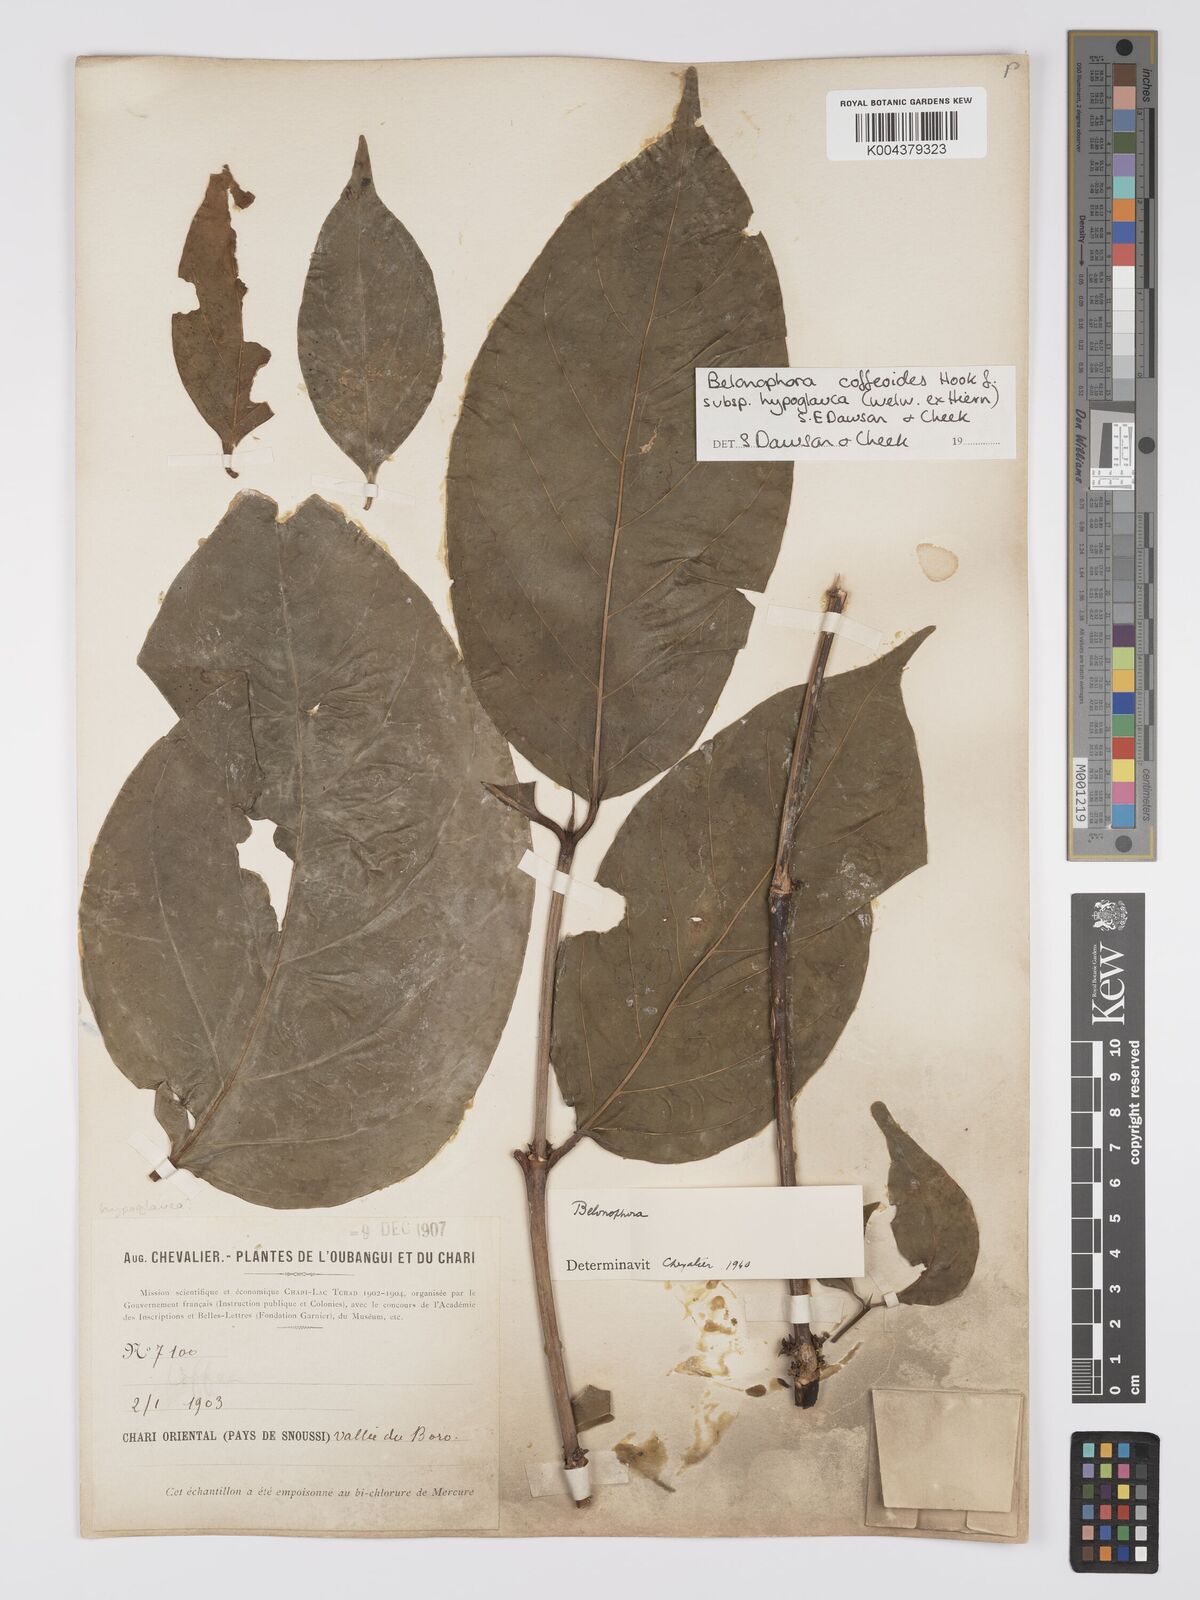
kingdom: Plantae
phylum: Tracheophyta
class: Magnoliopsida
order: Gentianales
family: Rubiaceae
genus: Belonophora
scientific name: Belonophora coffeoides
